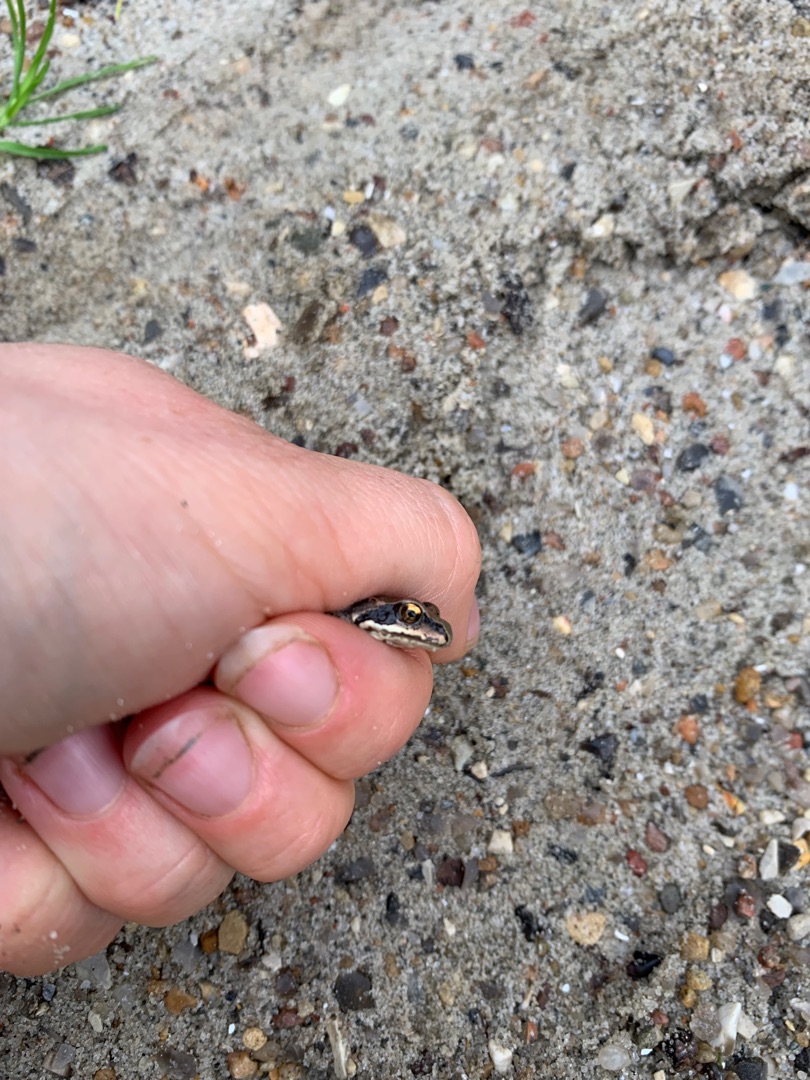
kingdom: Animalia
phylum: Chordata
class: Amphibia
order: Anura
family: Ranidae
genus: Rana
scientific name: Rana temporaria
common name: Butsnudet frø
